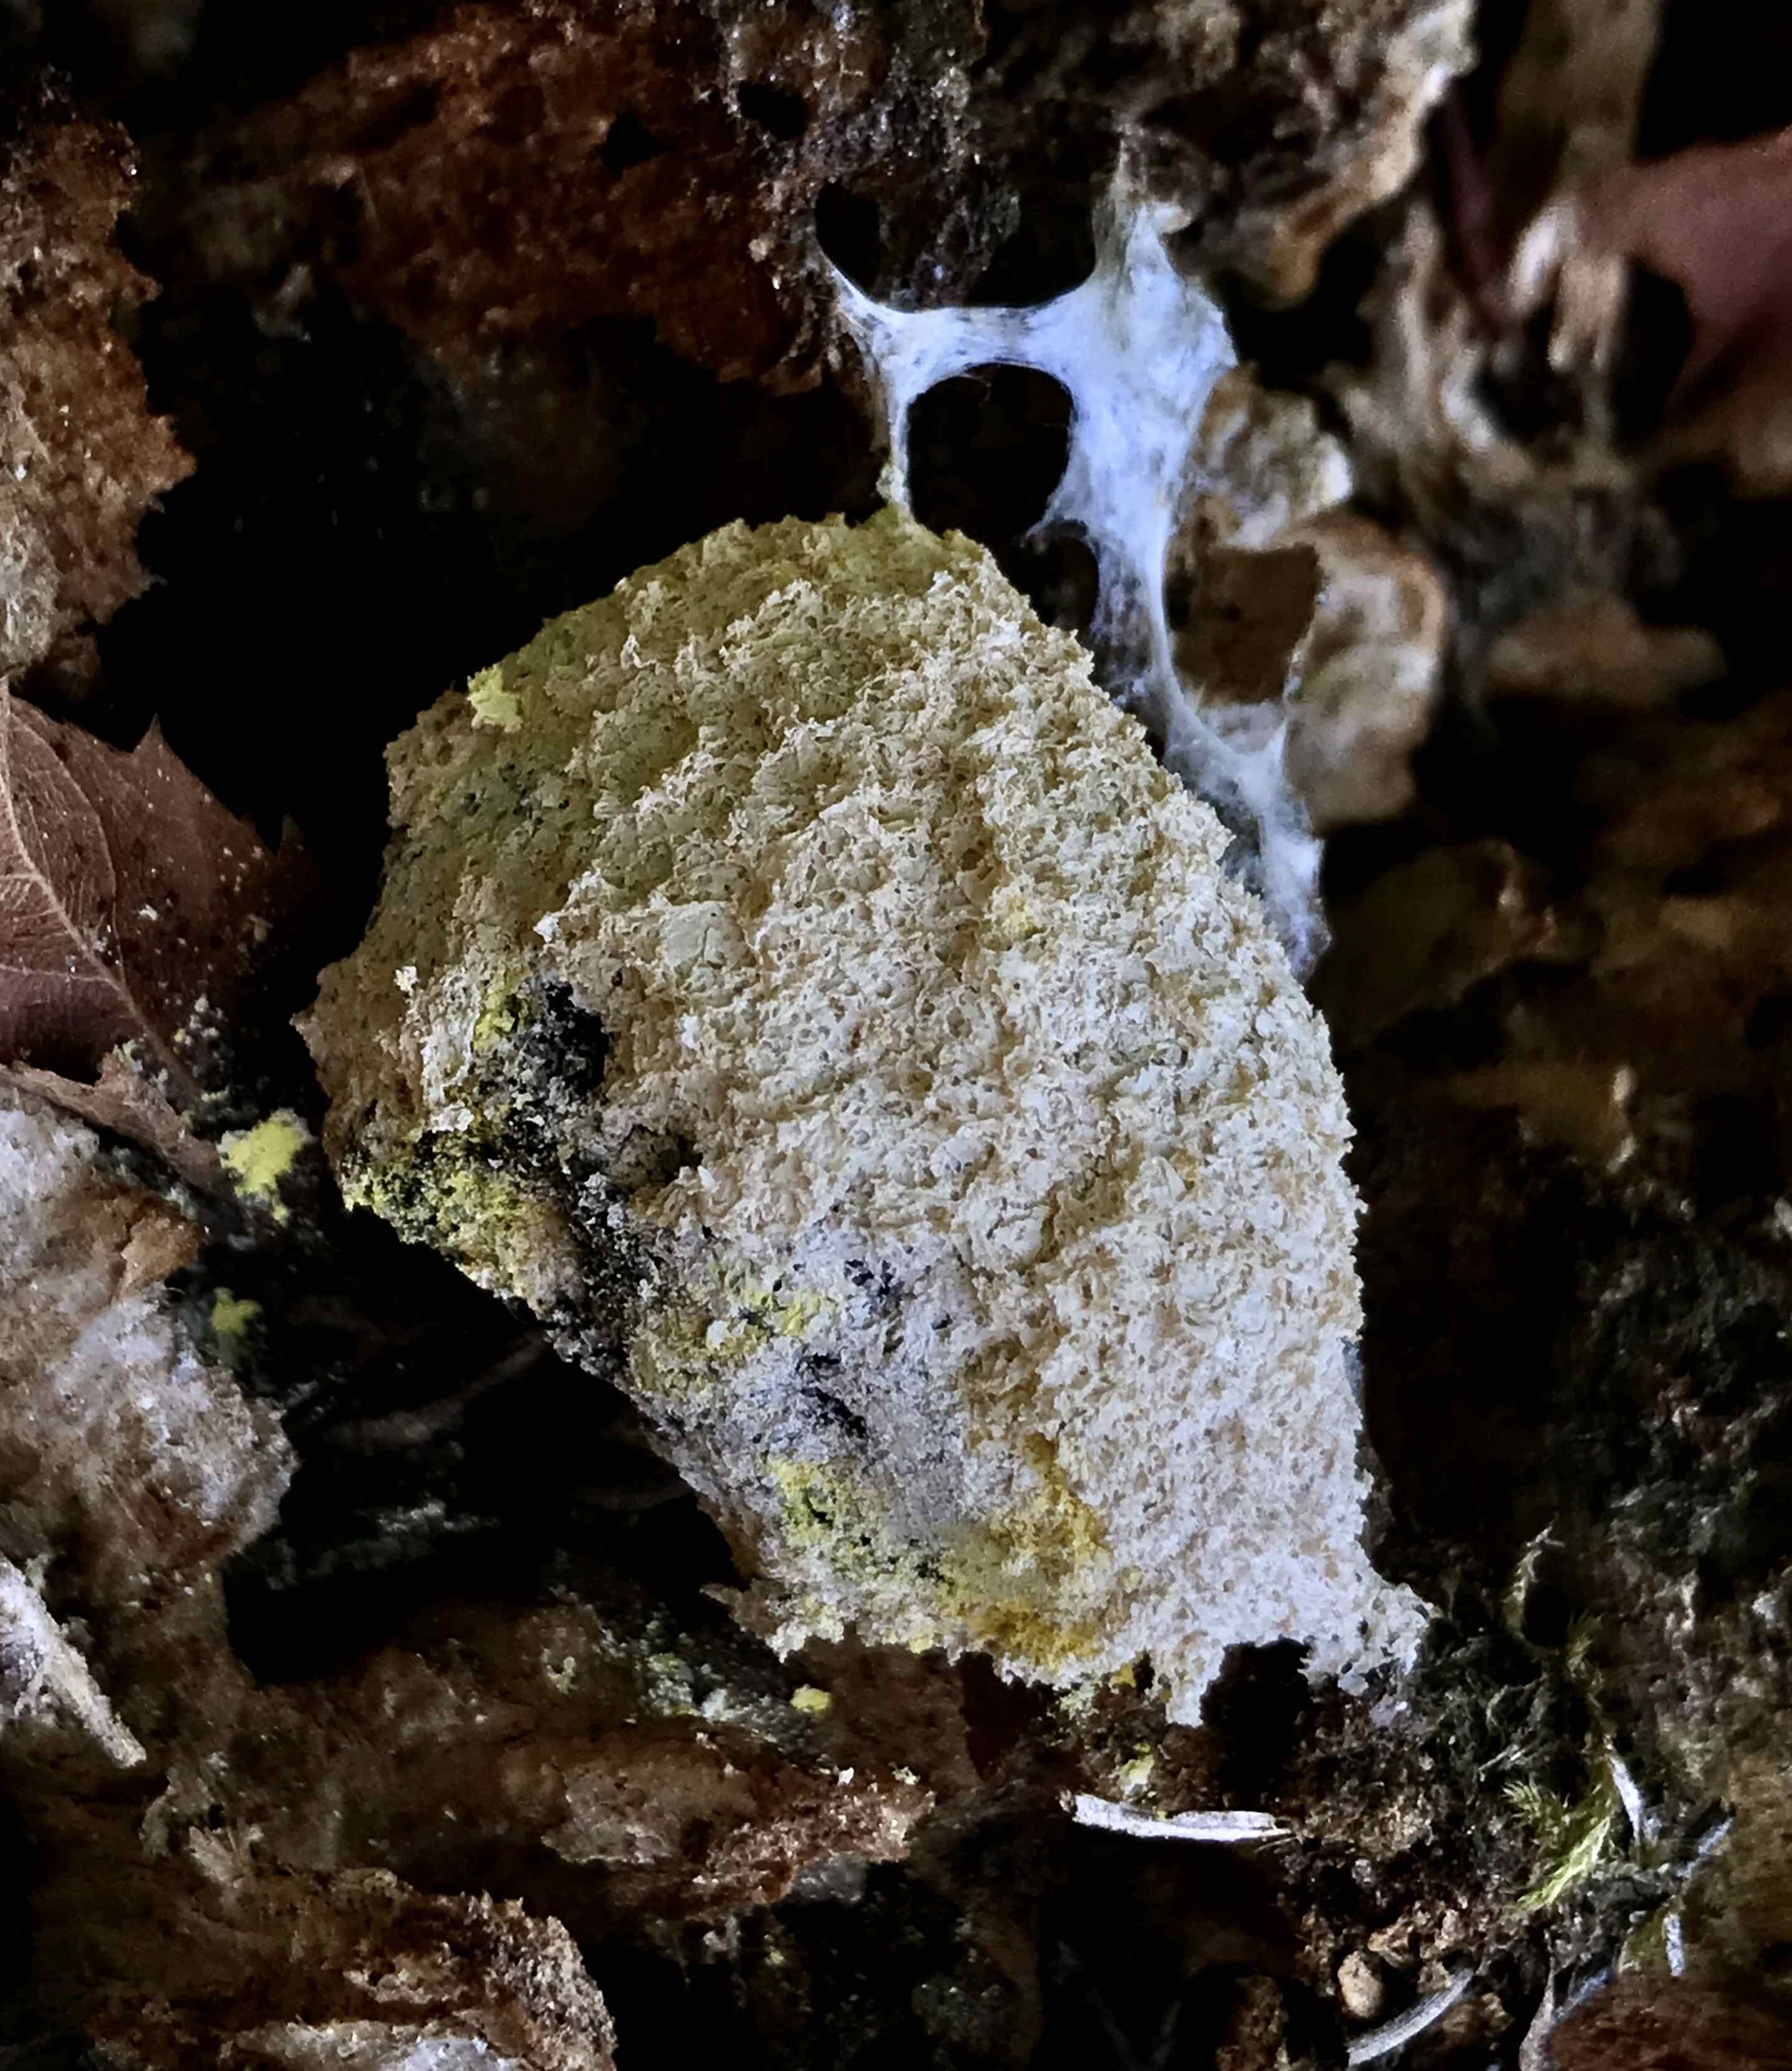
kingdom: Protozoa
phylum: Mycetozoa
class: Myxomycetes
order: Physarales
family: Physaraceae
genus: Fuligo
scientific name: Fuligo septica
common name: gul troldsmør
